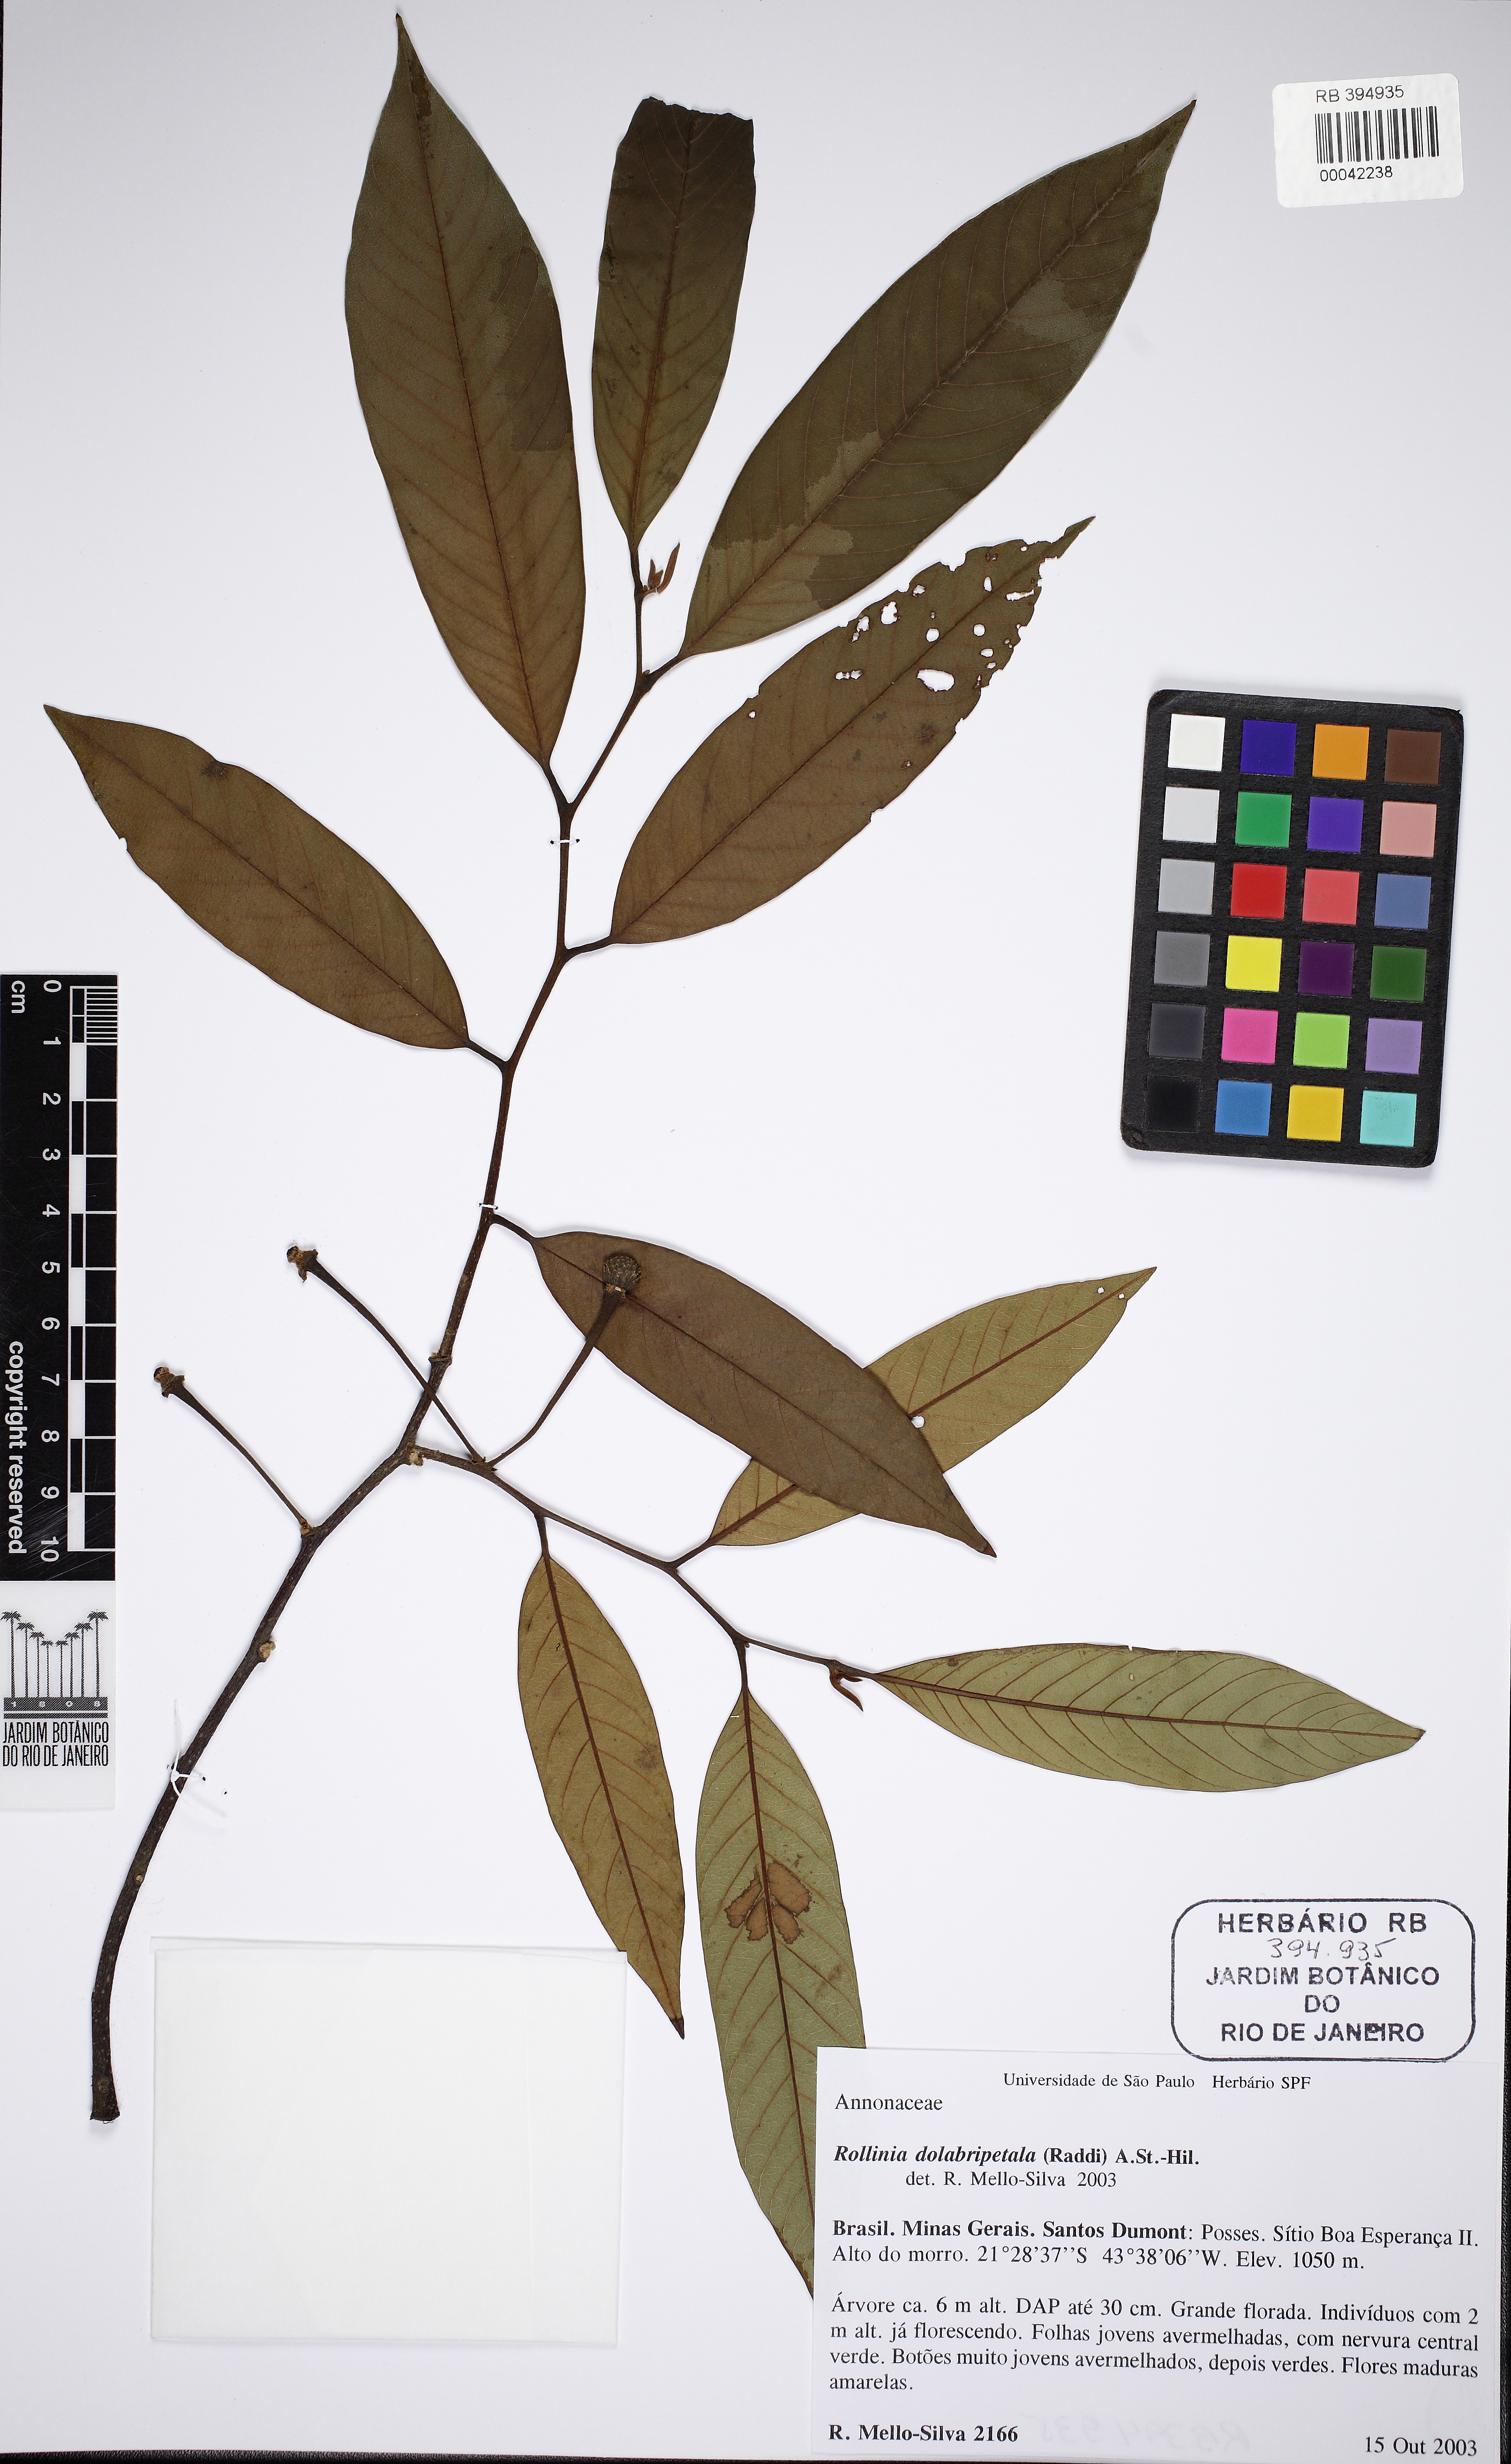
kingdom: Plantae
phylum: Tracheophyta
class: Magnoliopsida
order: Magnoliales
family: Annonaceae
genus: Annona
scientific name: Annona dolabripetala
